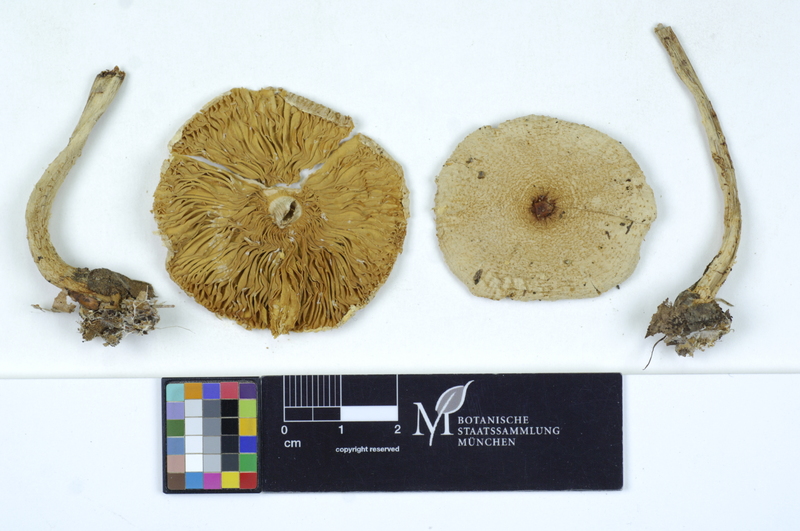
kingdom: Fungi
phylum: Basidiomycota
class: Agaricomycetes
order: Agaricales
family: Agaricaceae
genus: Lepiota
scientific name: Lepiota clypeolaria
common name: Shield dapperling
